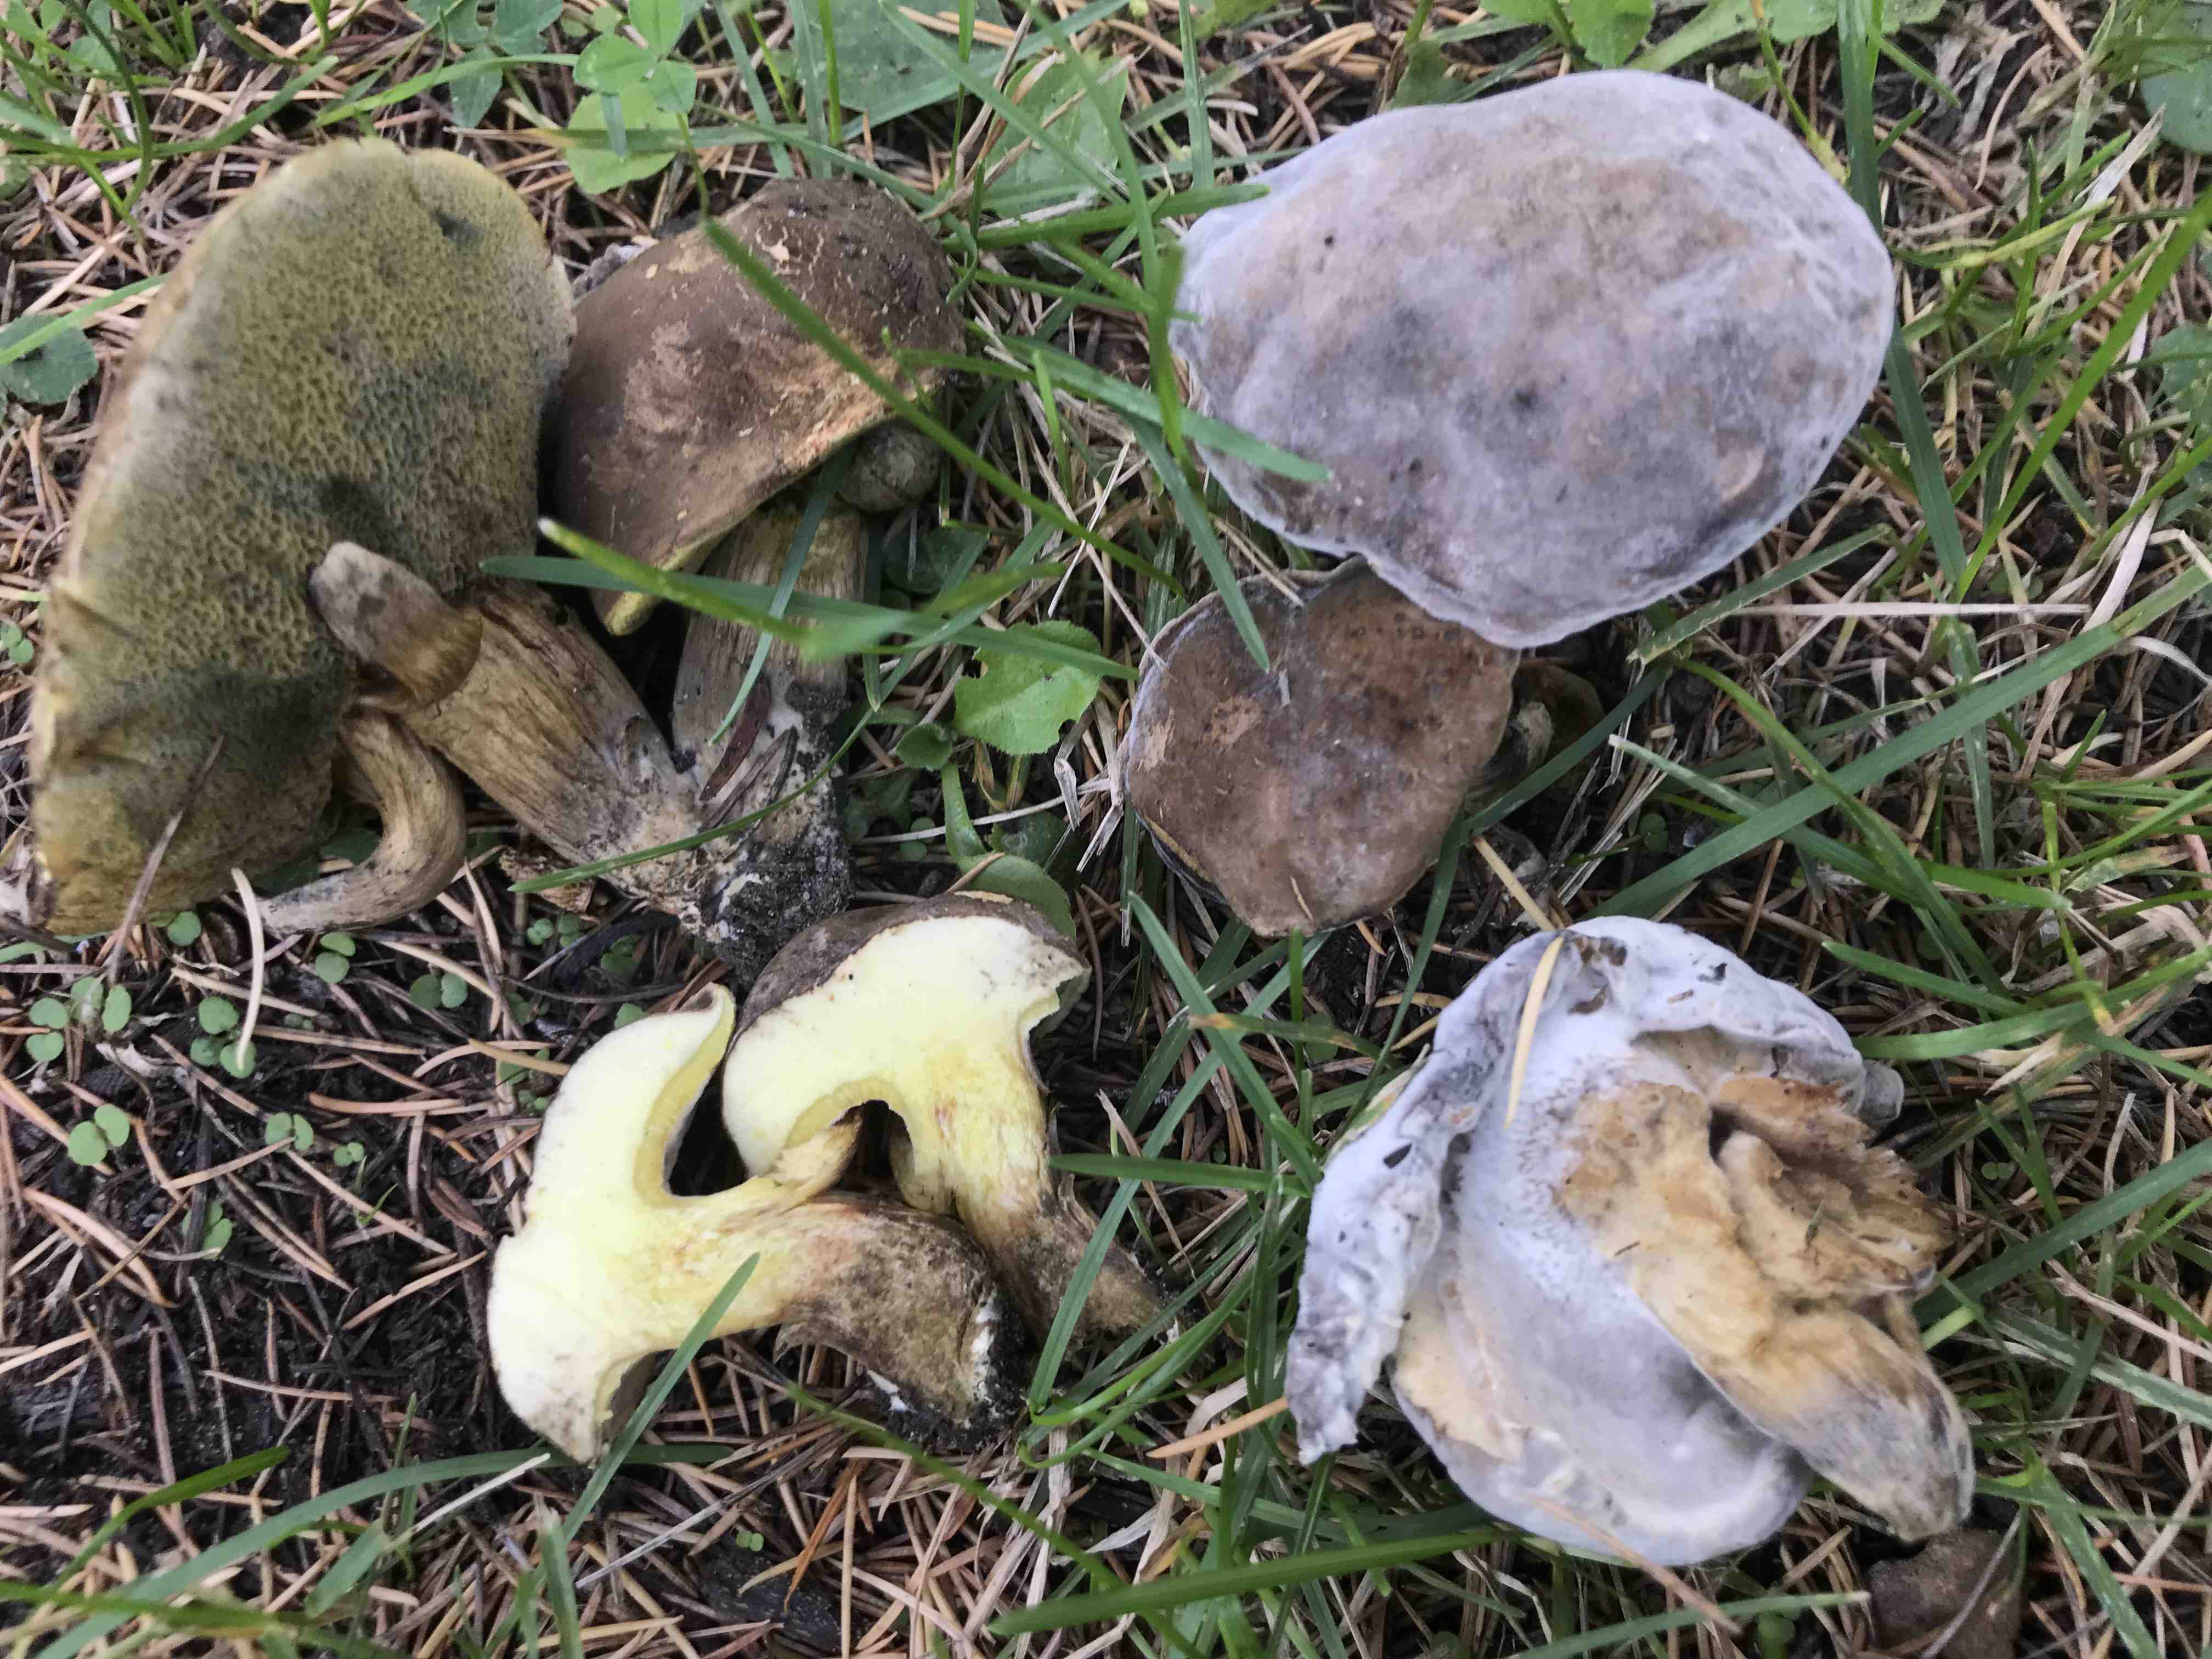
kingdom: Fungi
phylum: Ascomycota
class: Sordariomycetes
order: Hypocreales
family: Hypocreaceae
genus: Hypomyces
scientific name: Hypomyces microspermus
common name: dværgrørhat-snylteskorpe
